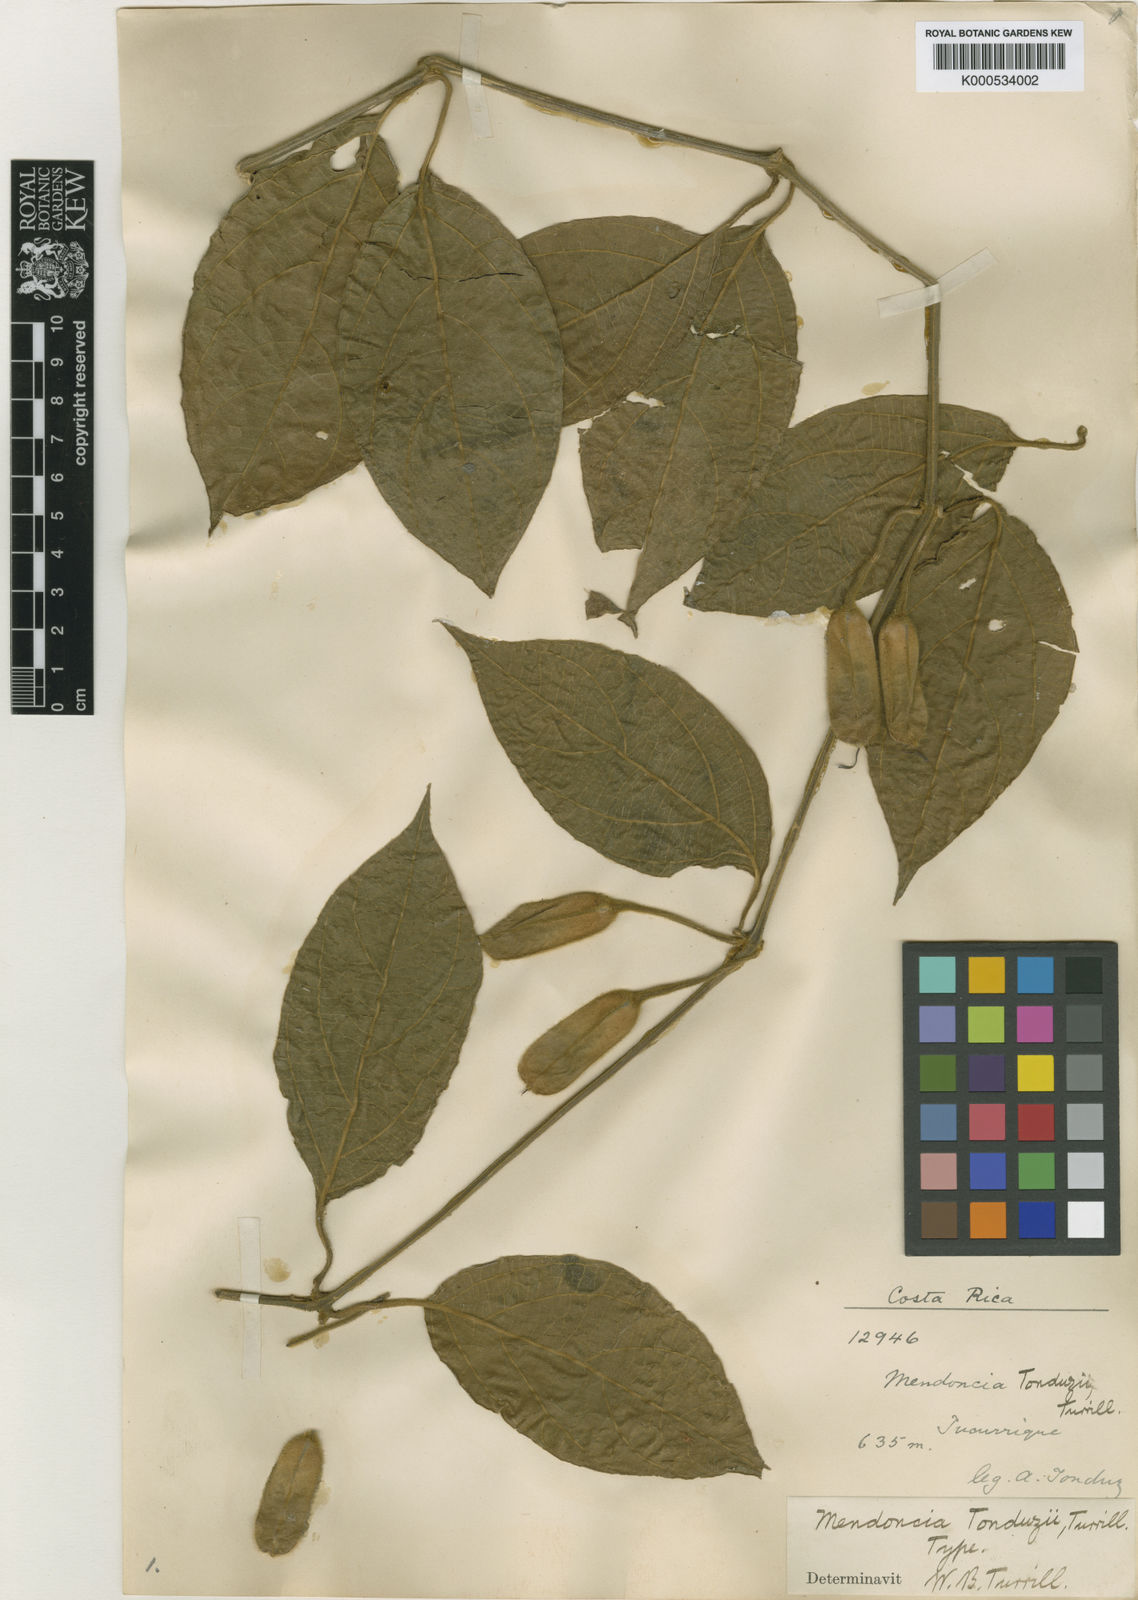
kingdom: Plantae
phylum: Tracheophyta
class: Magnoliopsida
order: Lamiales
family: Acanthaceae
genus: Mendoncia
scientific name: Mendoncia tonduzii
